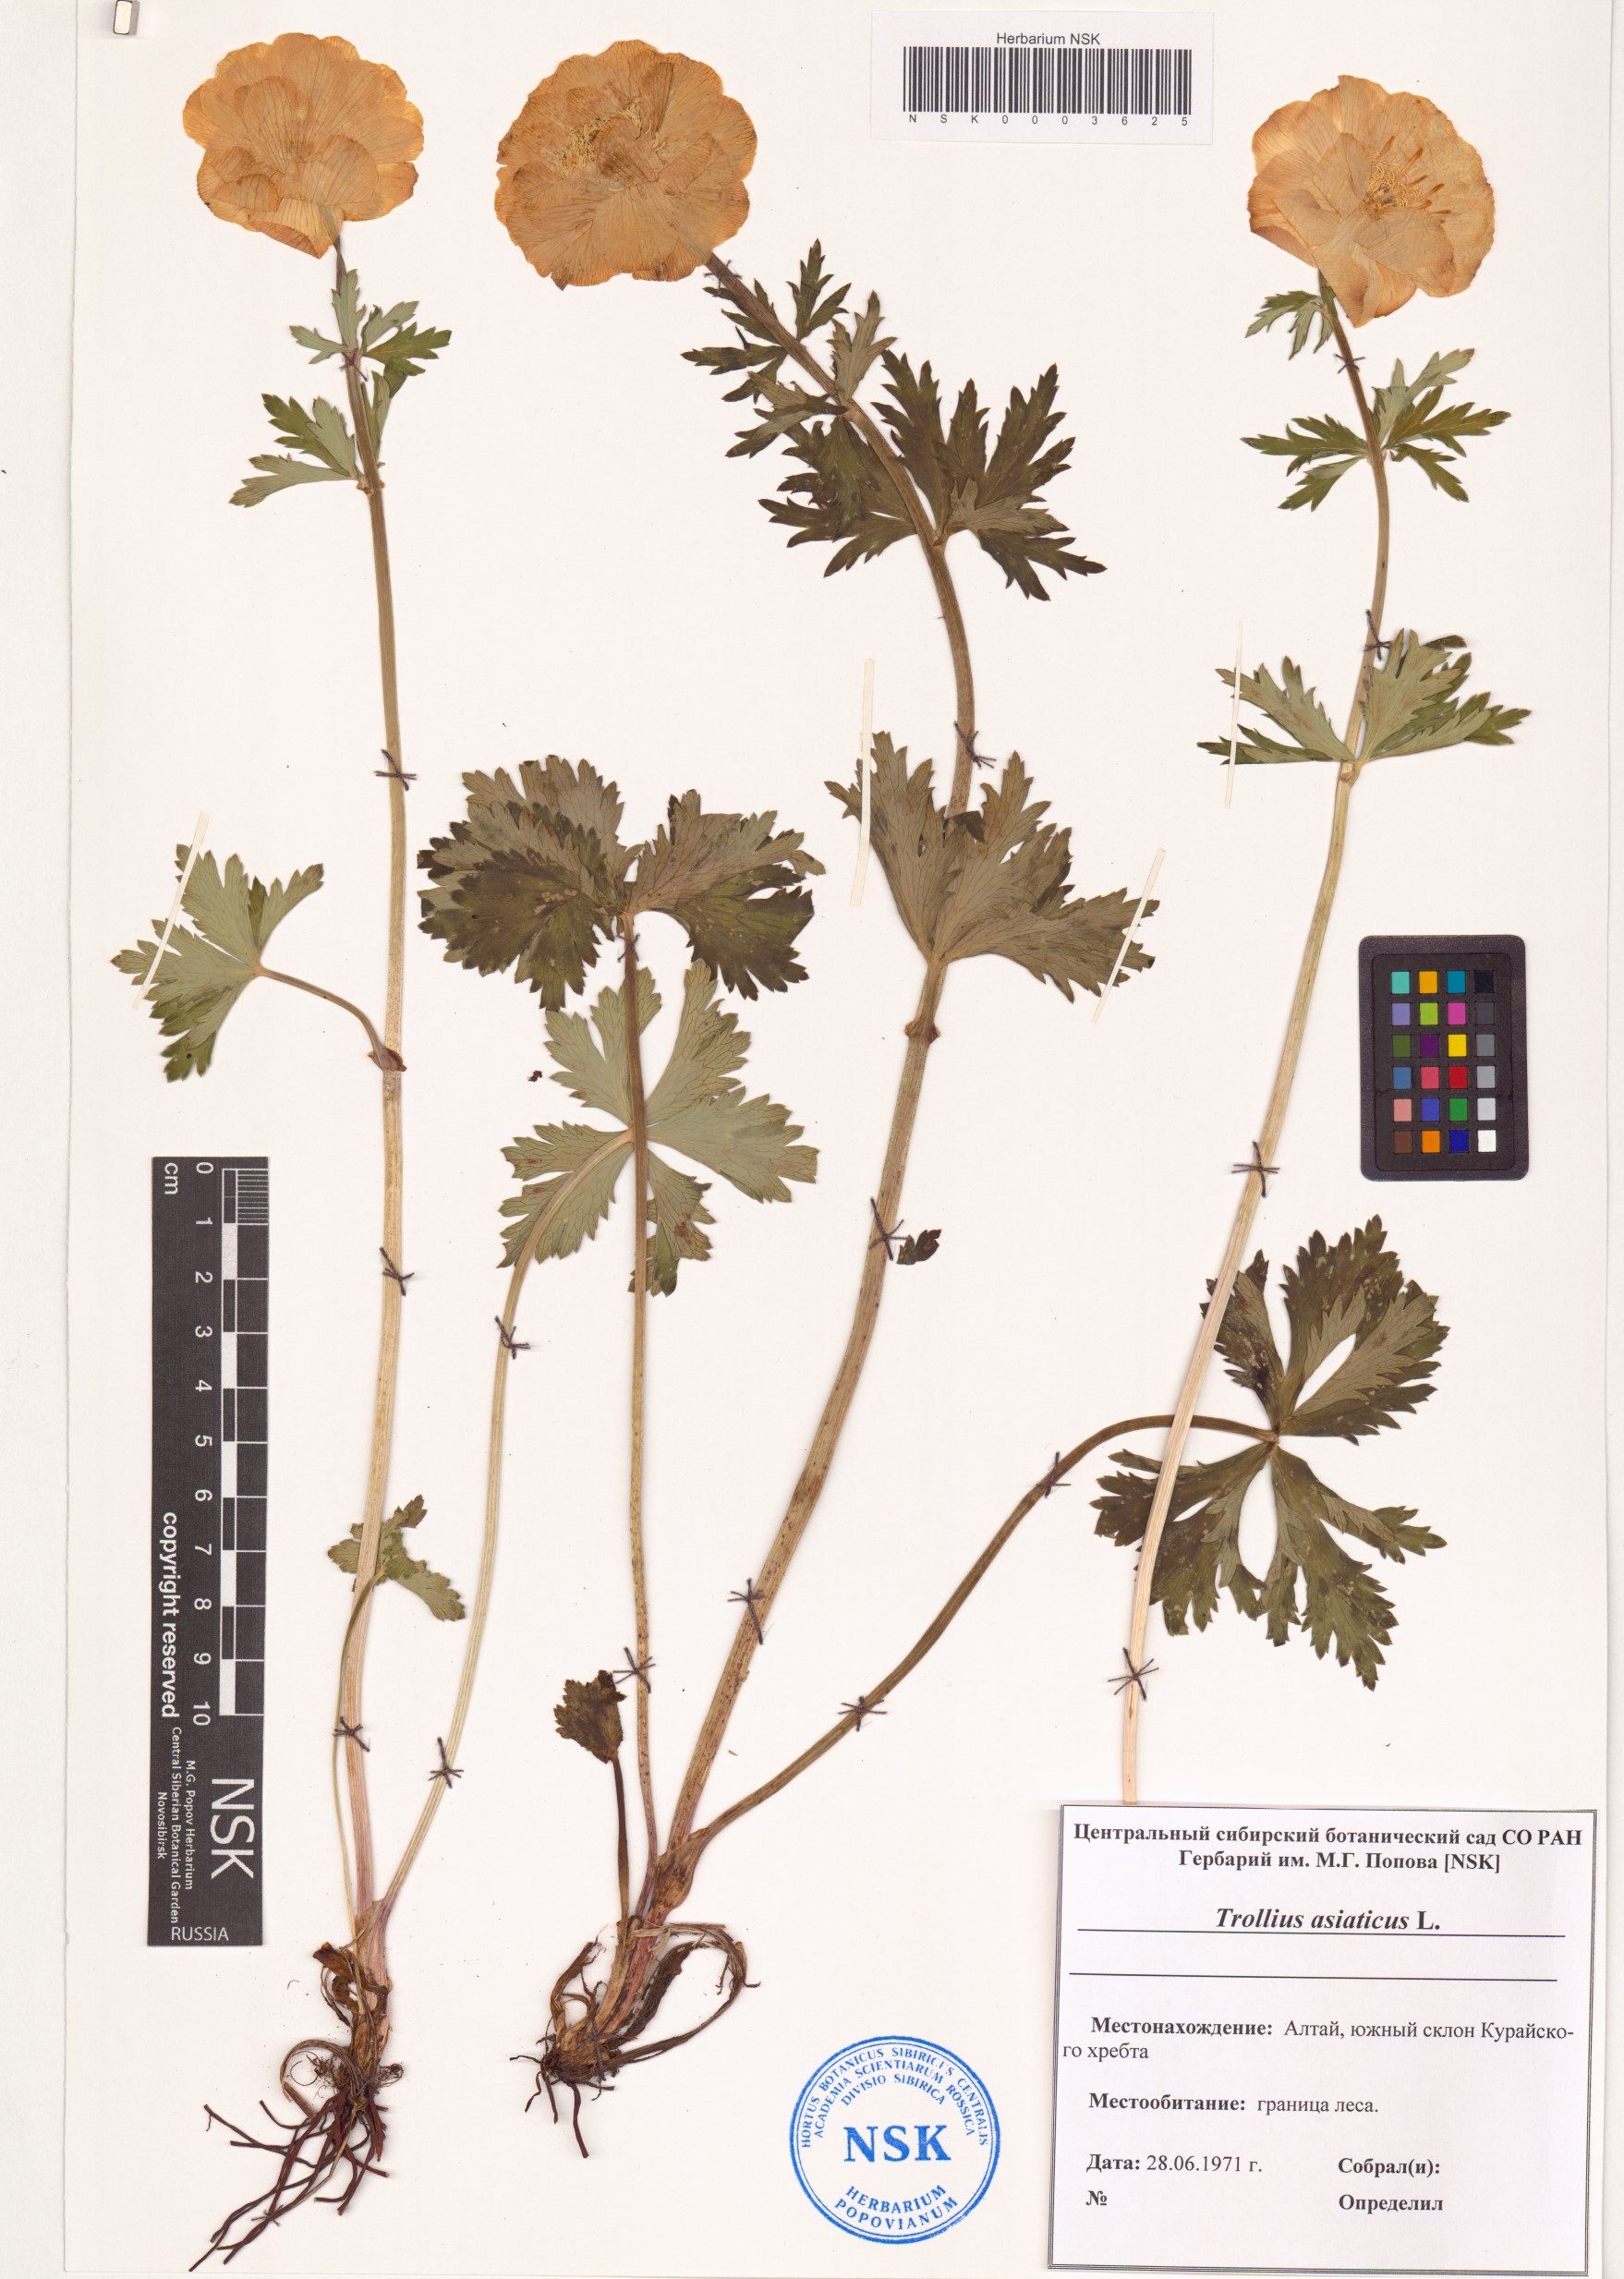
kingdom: Plantae
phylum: Tracheophyta
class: Magnoliopsida
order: Ranunculales
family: Ranunculaceae
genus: Trollius
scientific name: Trollius asiaticus
